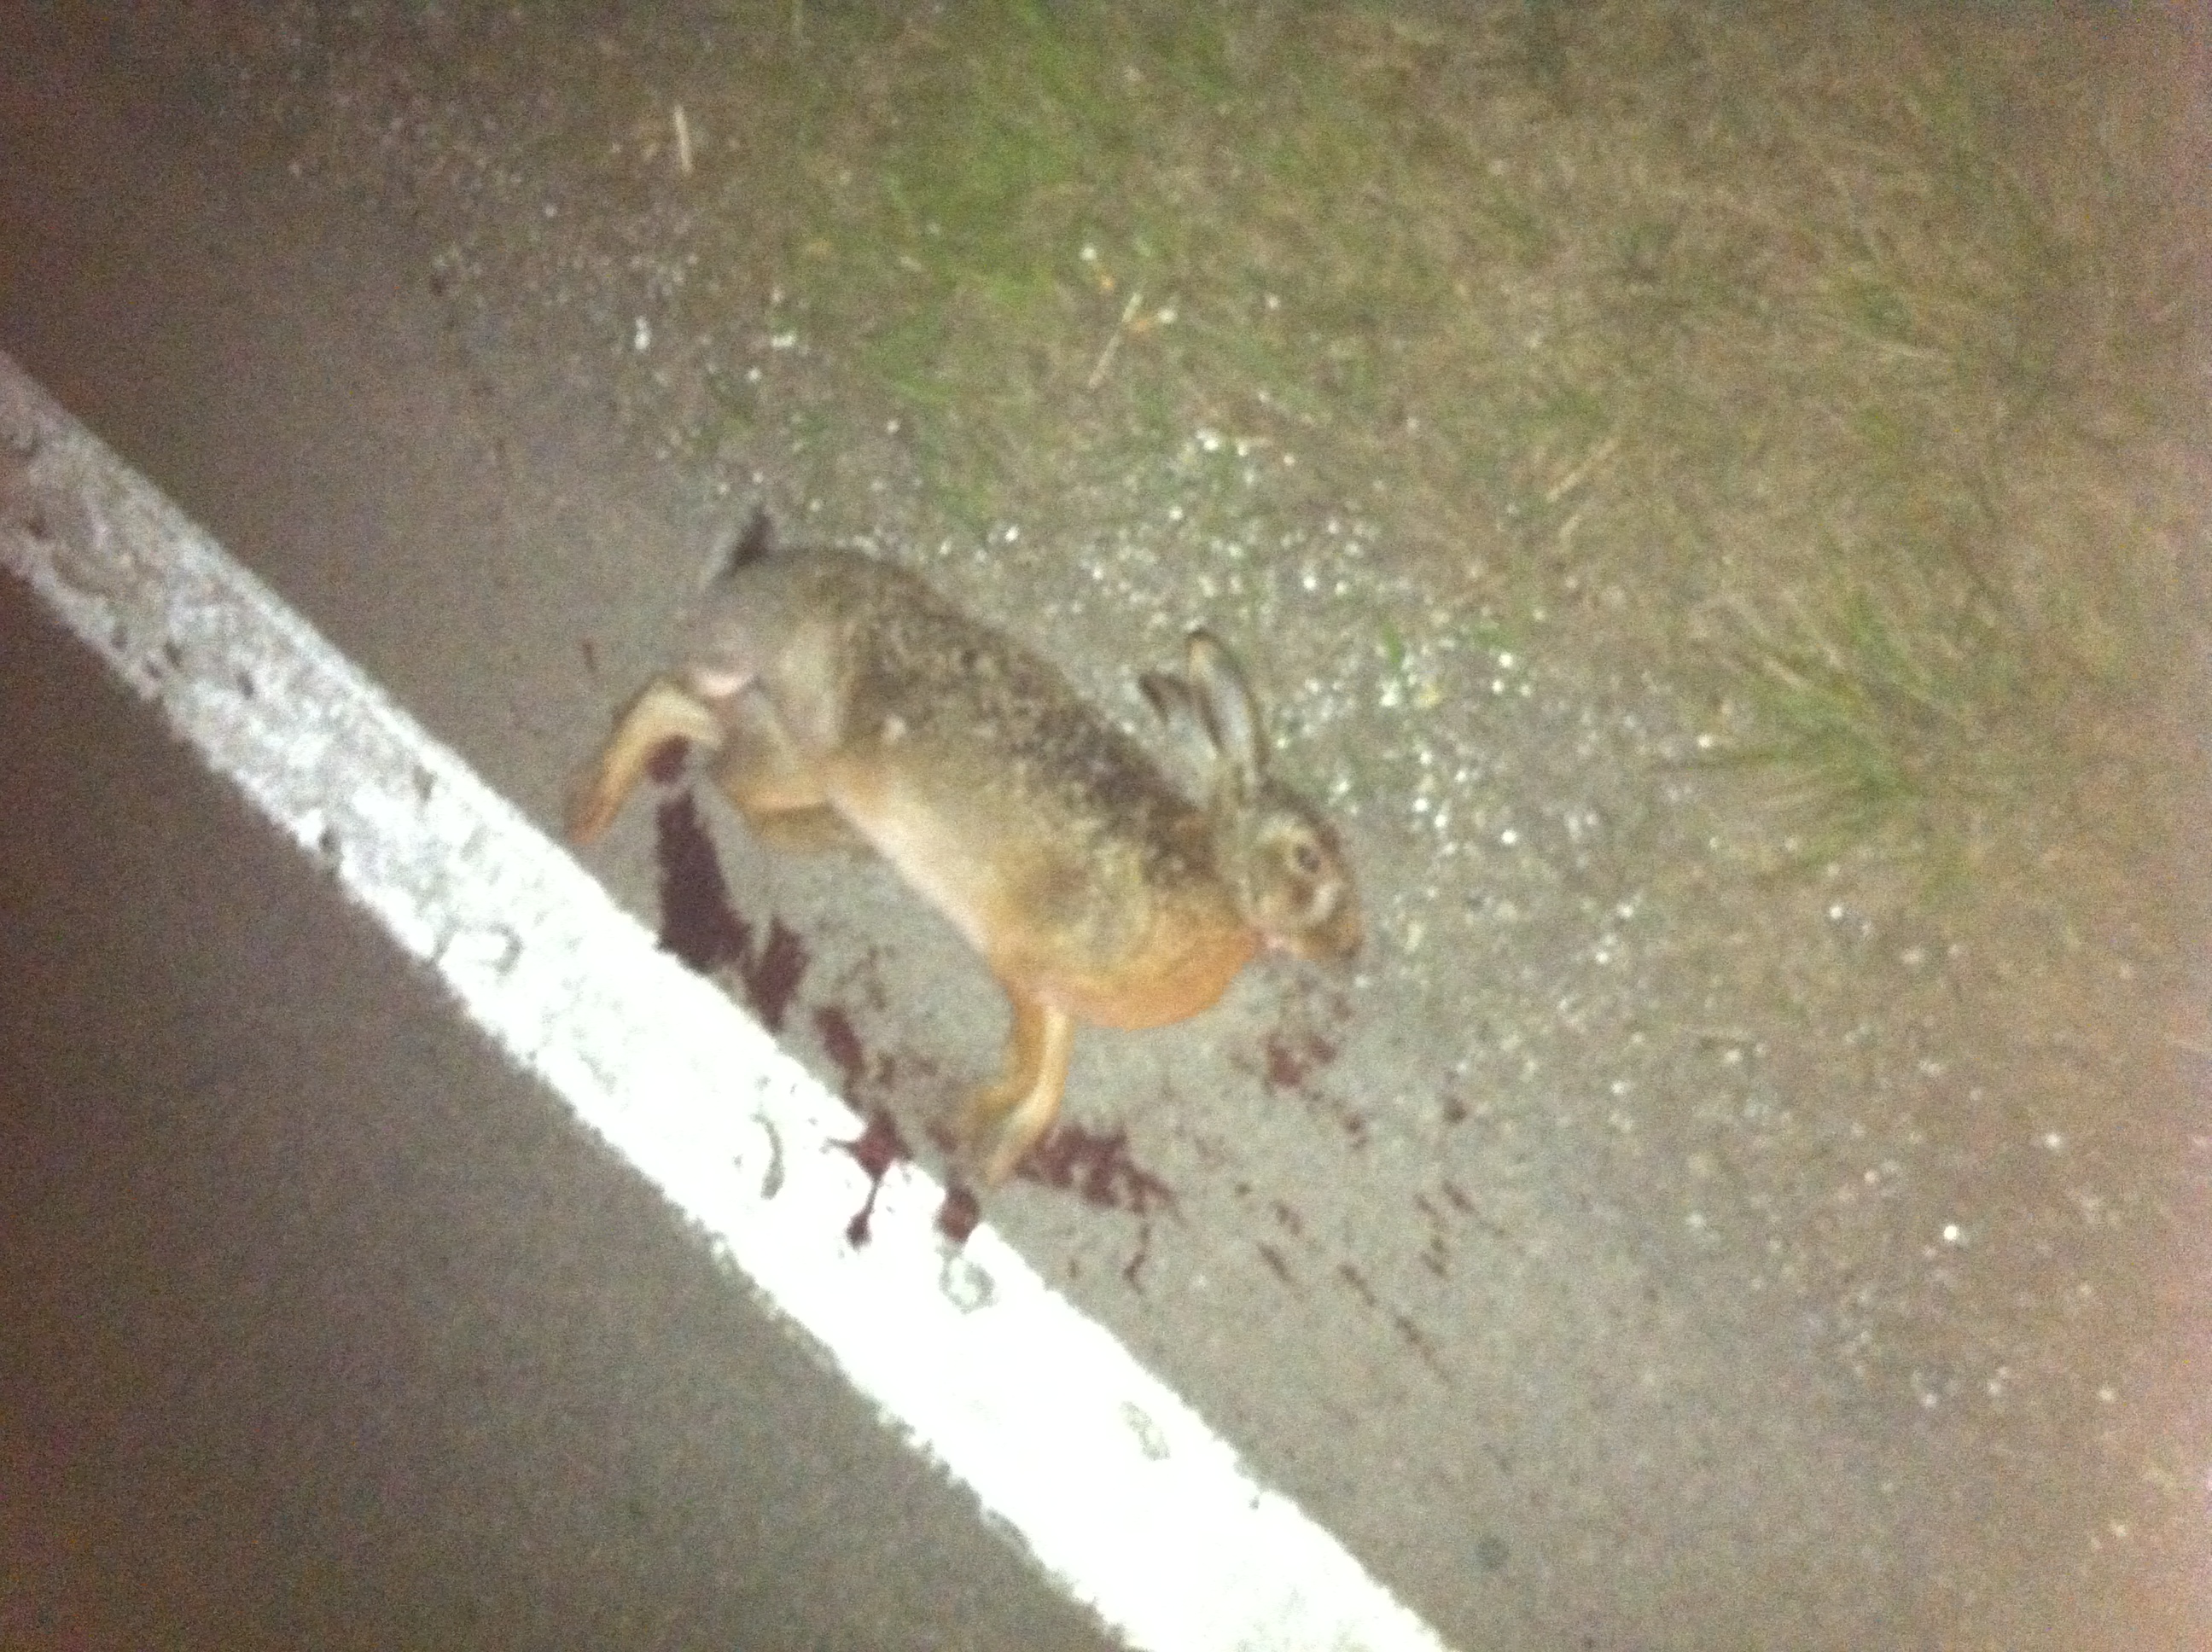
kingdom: Animalia
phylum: Chordata
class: Mammalia
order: Lagomorpha
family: Leporidae
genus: Lepus
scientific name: Lepus europaeus
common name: European hare
